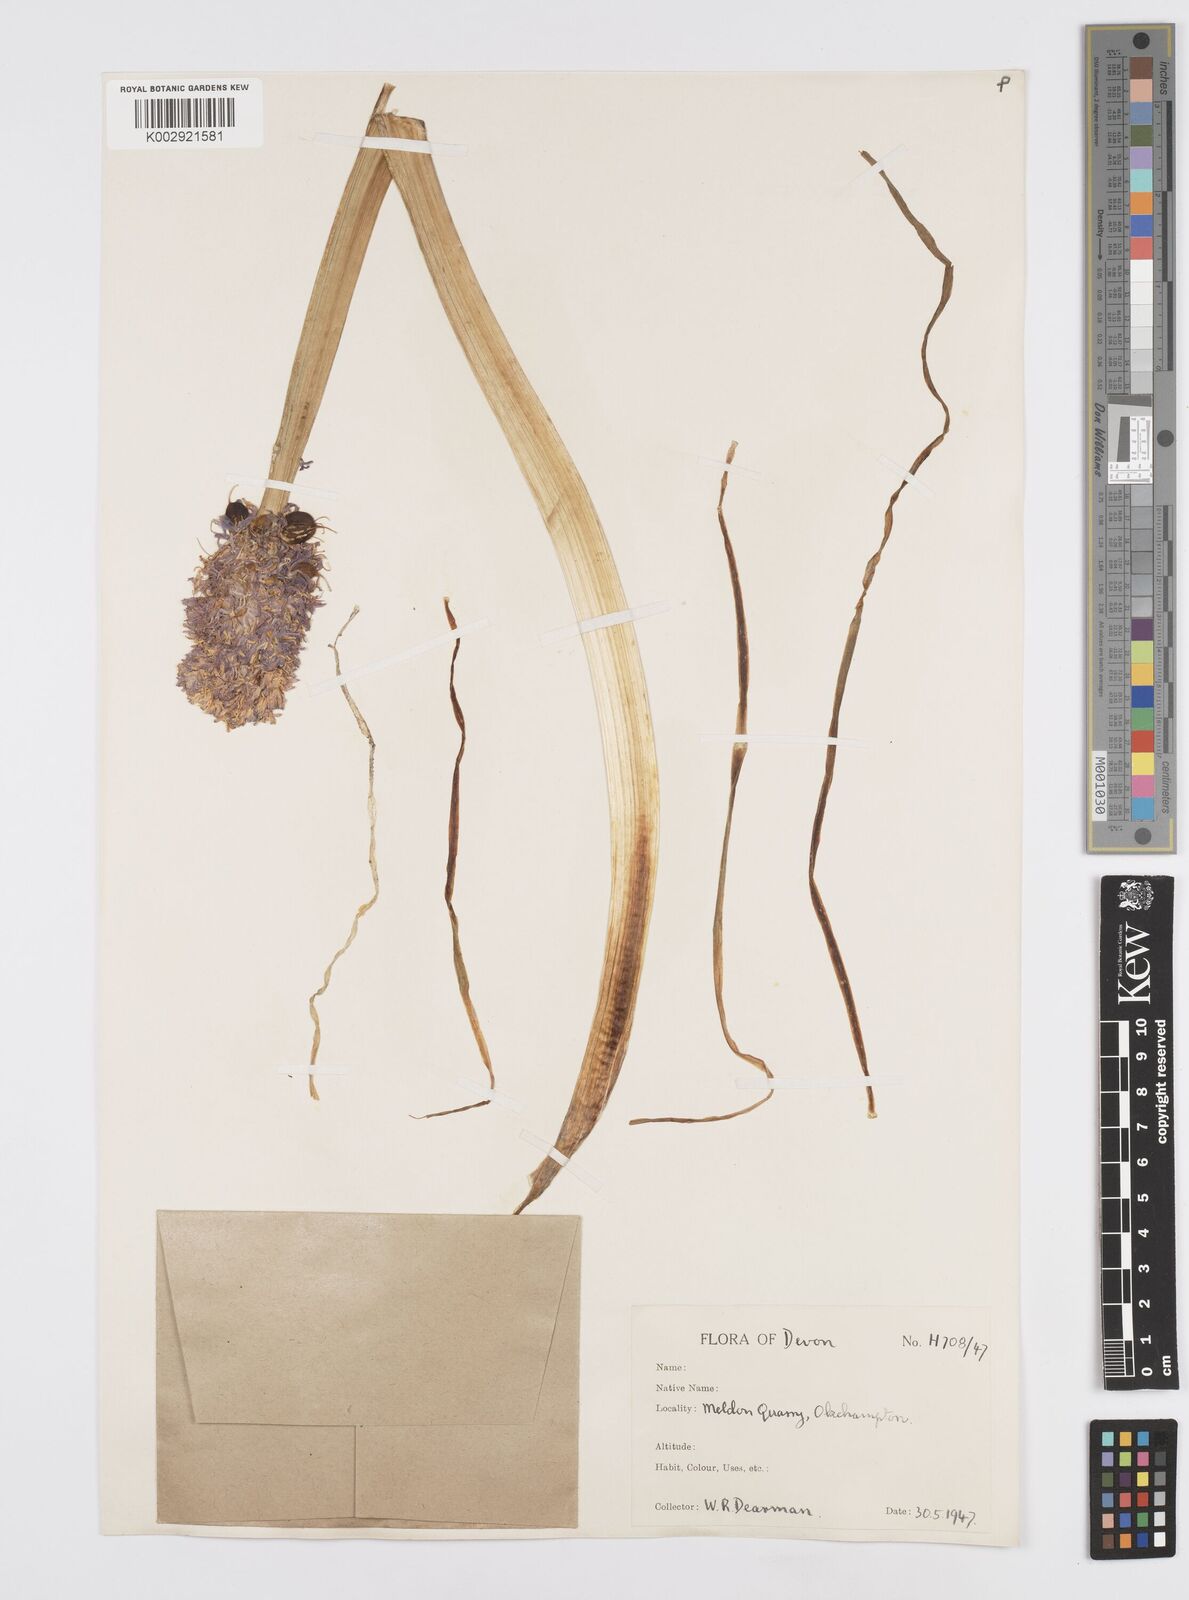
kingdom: Plantae
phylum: Tracheophyta
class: Liliopsida
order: Asparagales
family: Asparagaceae
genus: Hyacinthoides
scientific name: Hyacinthoides non-scripta
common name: Bluebell
